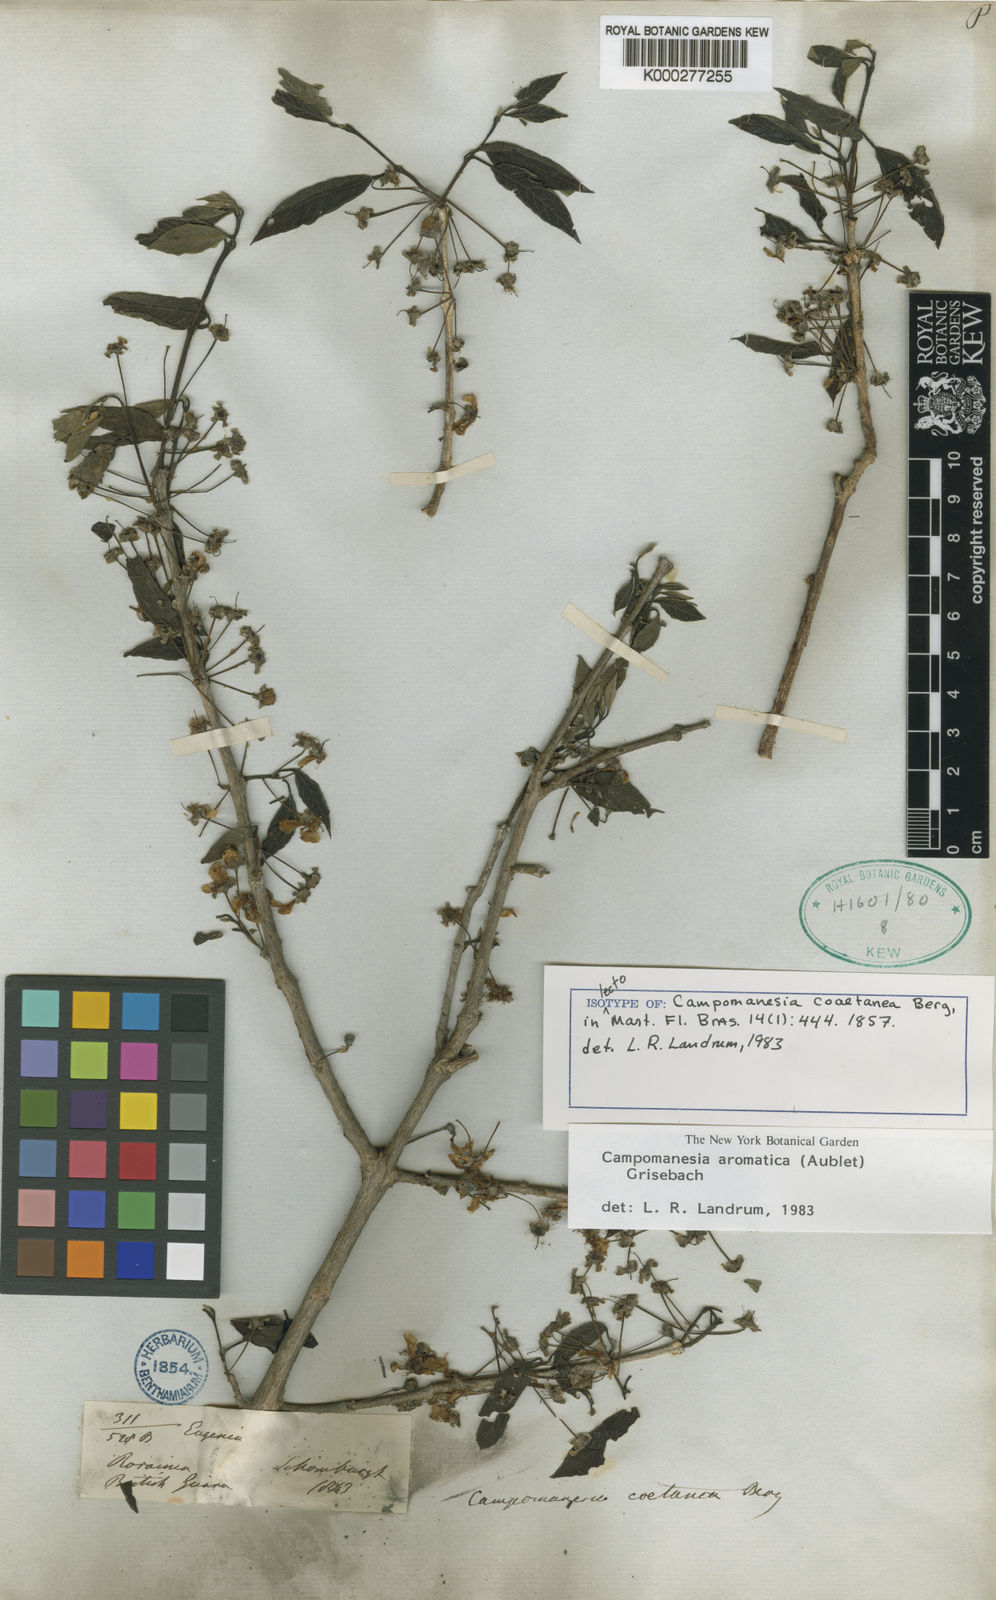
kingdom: Plantae
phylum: Tracheophyta
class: Magnoliopsida
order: Myrtales
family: Myrtaceae
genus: Campomanesia
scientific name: Campomanesia aromatica
